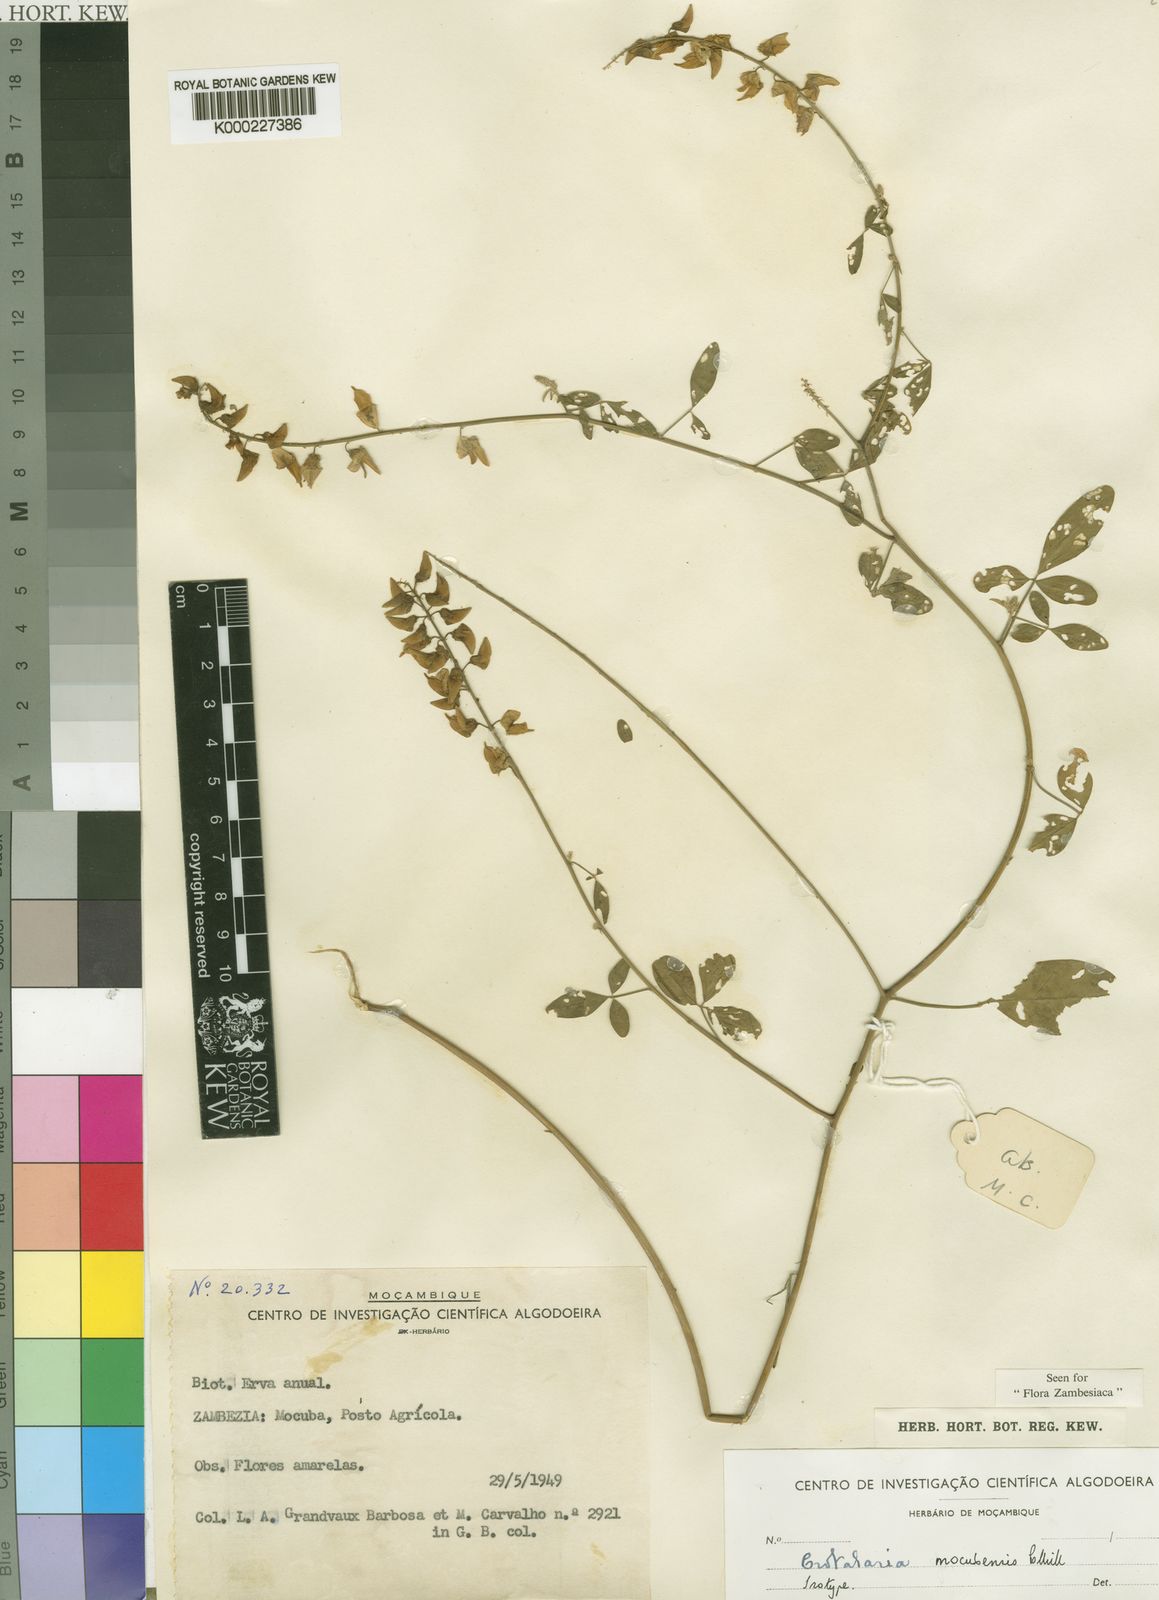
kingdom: Plantae
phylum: Tracheophyta
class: Magnoliopsida
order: Fabales
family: Fabaceae
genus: Crotalaria
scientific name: Crotalaria mocubensis
